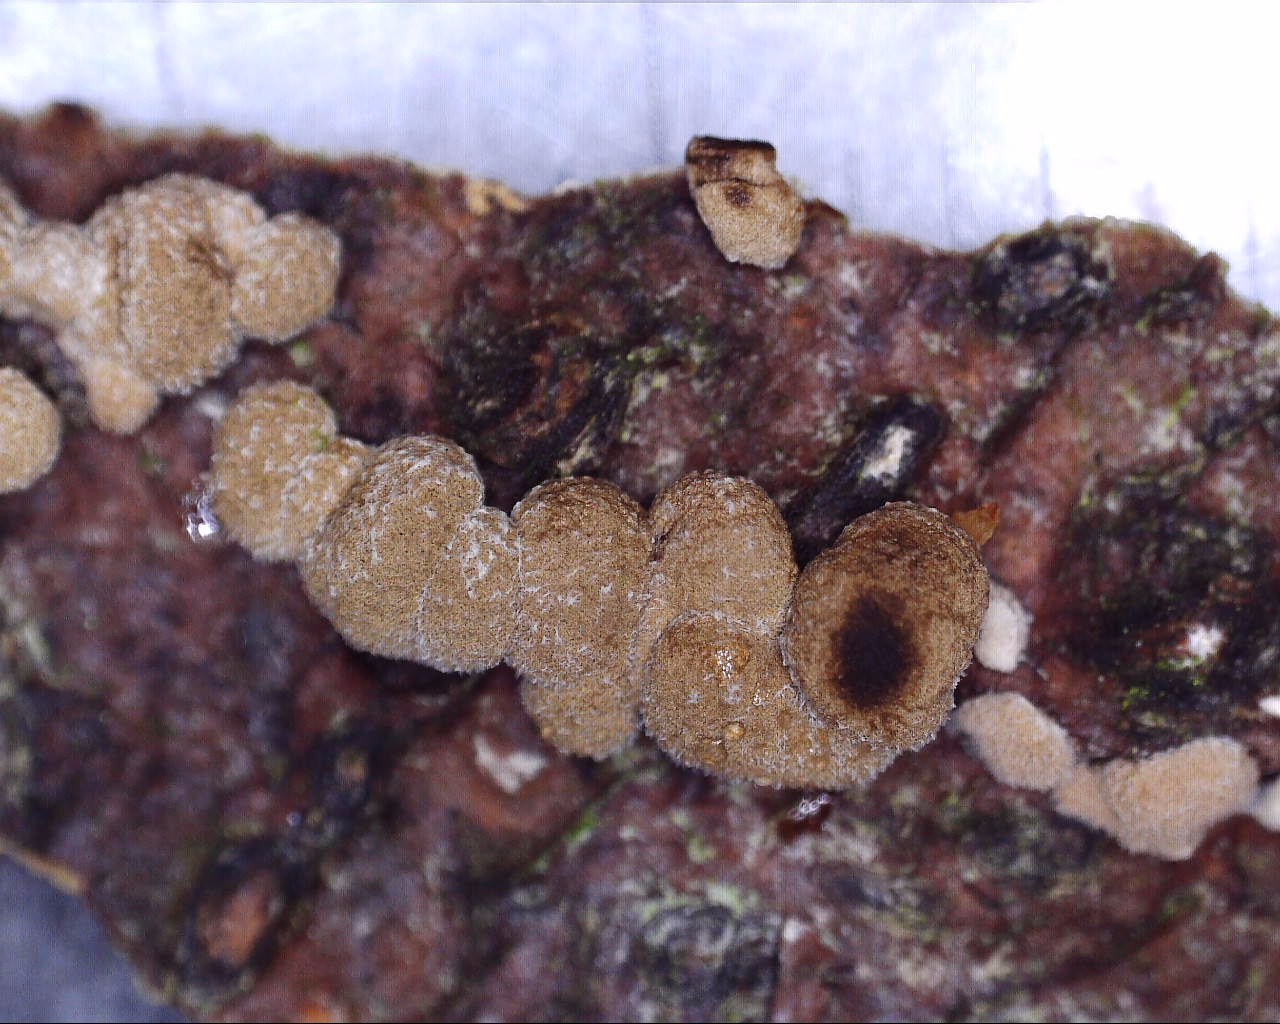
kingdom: Fungi
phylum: Basidiomycota
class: Atractiellomycetes
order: Atractiellales
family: Phleogenaceae
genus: Phleogena
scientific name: Phleogena faginea
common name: pudderkølle
